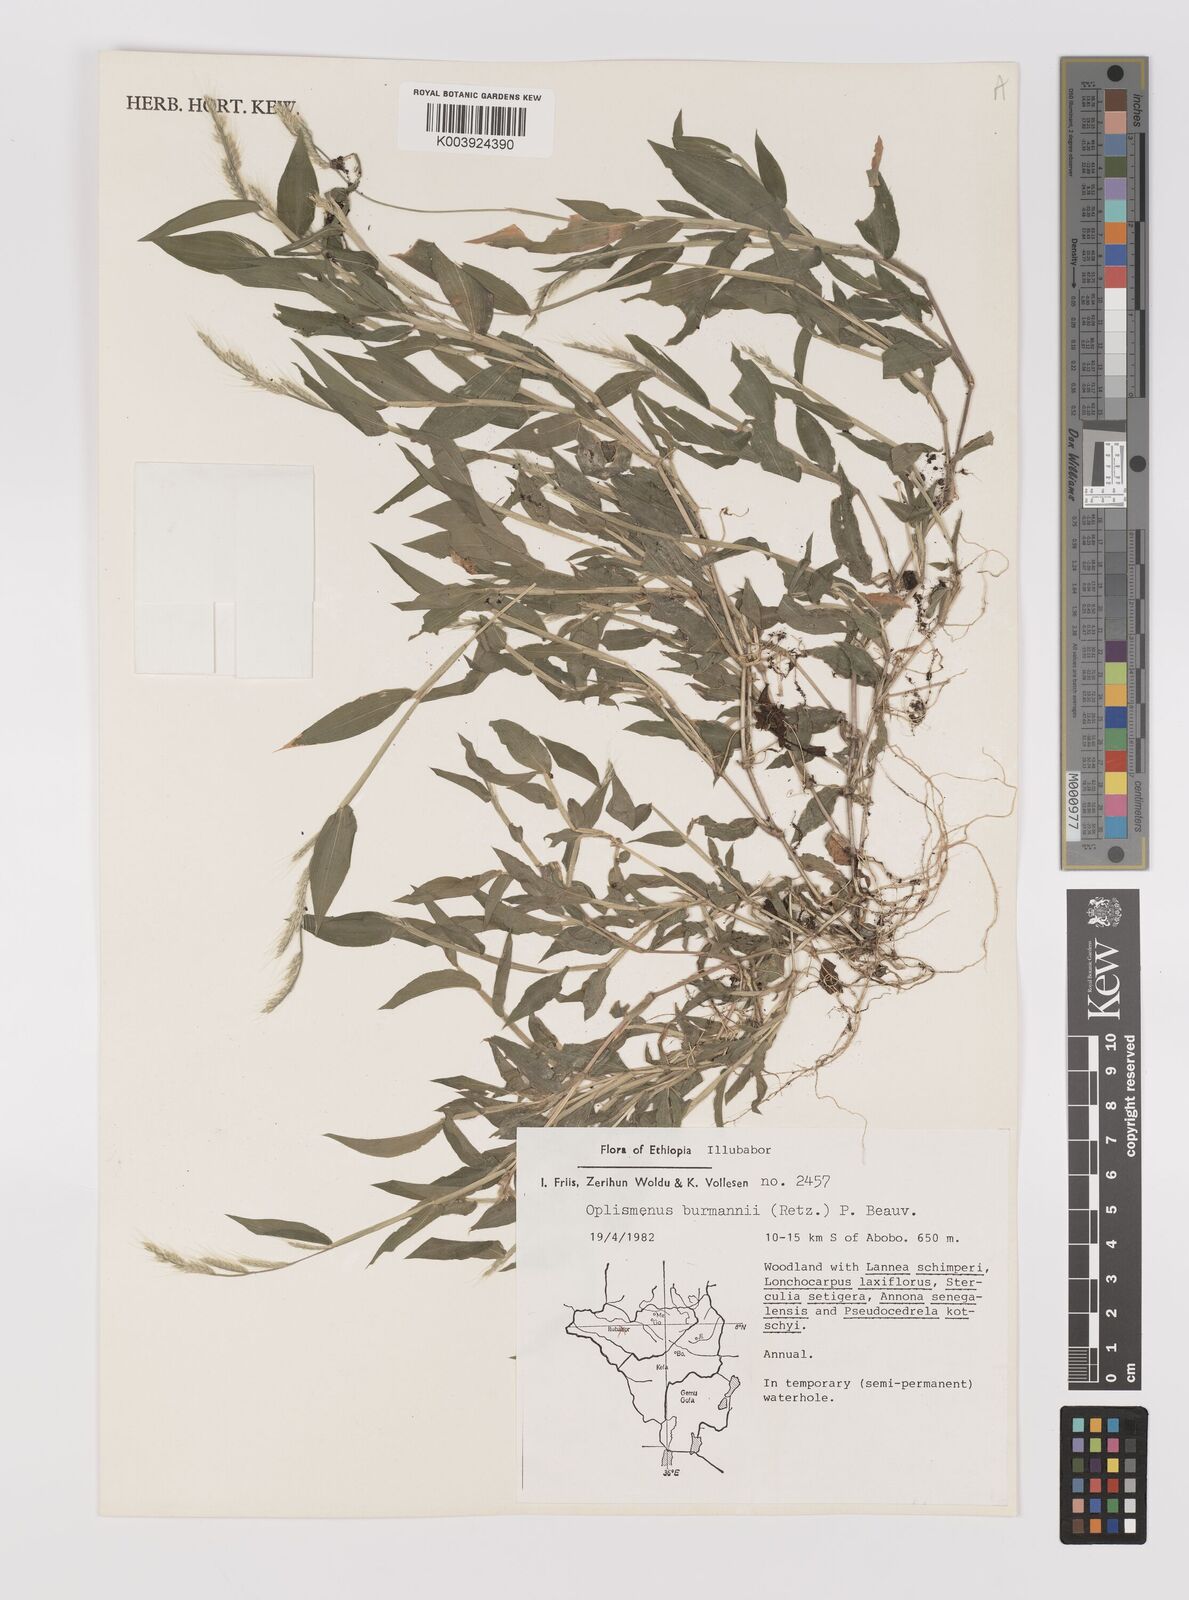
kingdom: Plantae
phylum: Tracheophyta
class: Liliopsida
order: Poales
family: Poaceae
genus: Oplismenus
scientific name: Oplismenus burmanni
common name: Burmann's basketgrass
